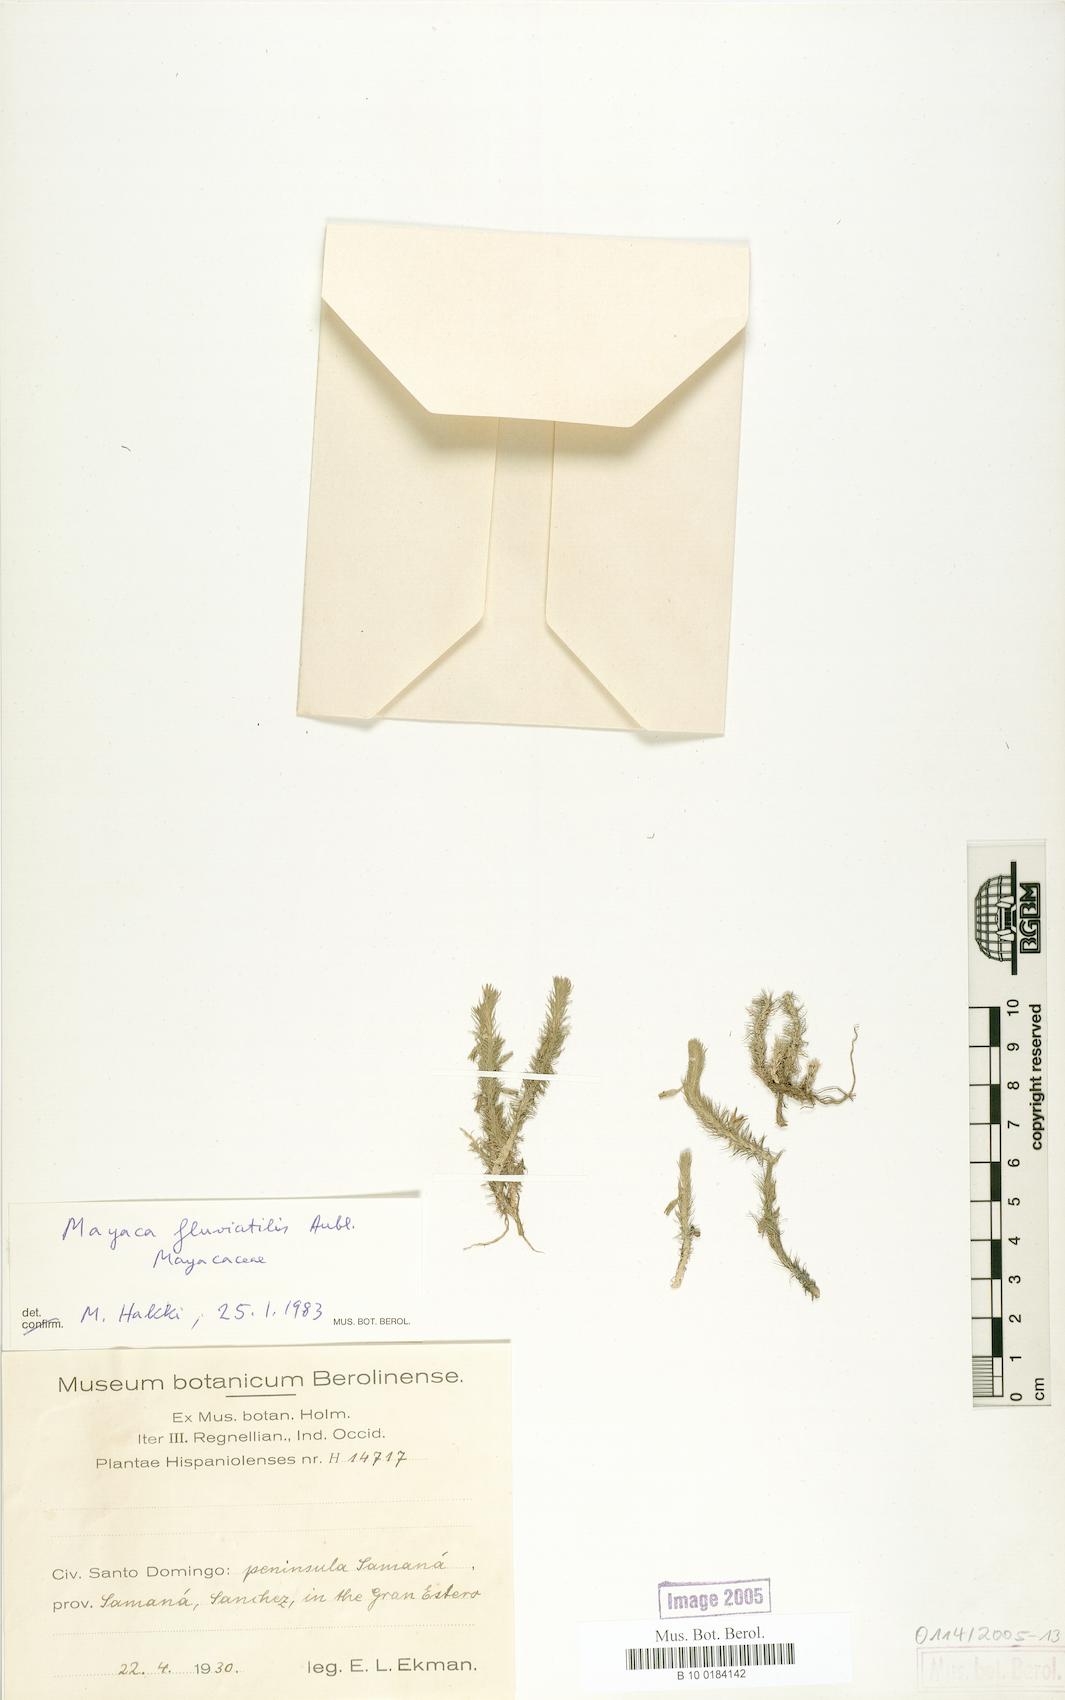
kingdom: Plantae
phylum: Tracheophyta
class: Liliopsida
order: Poales
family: Mayacaceae
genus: Mayaca
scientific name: Mayaca fluviatilis
